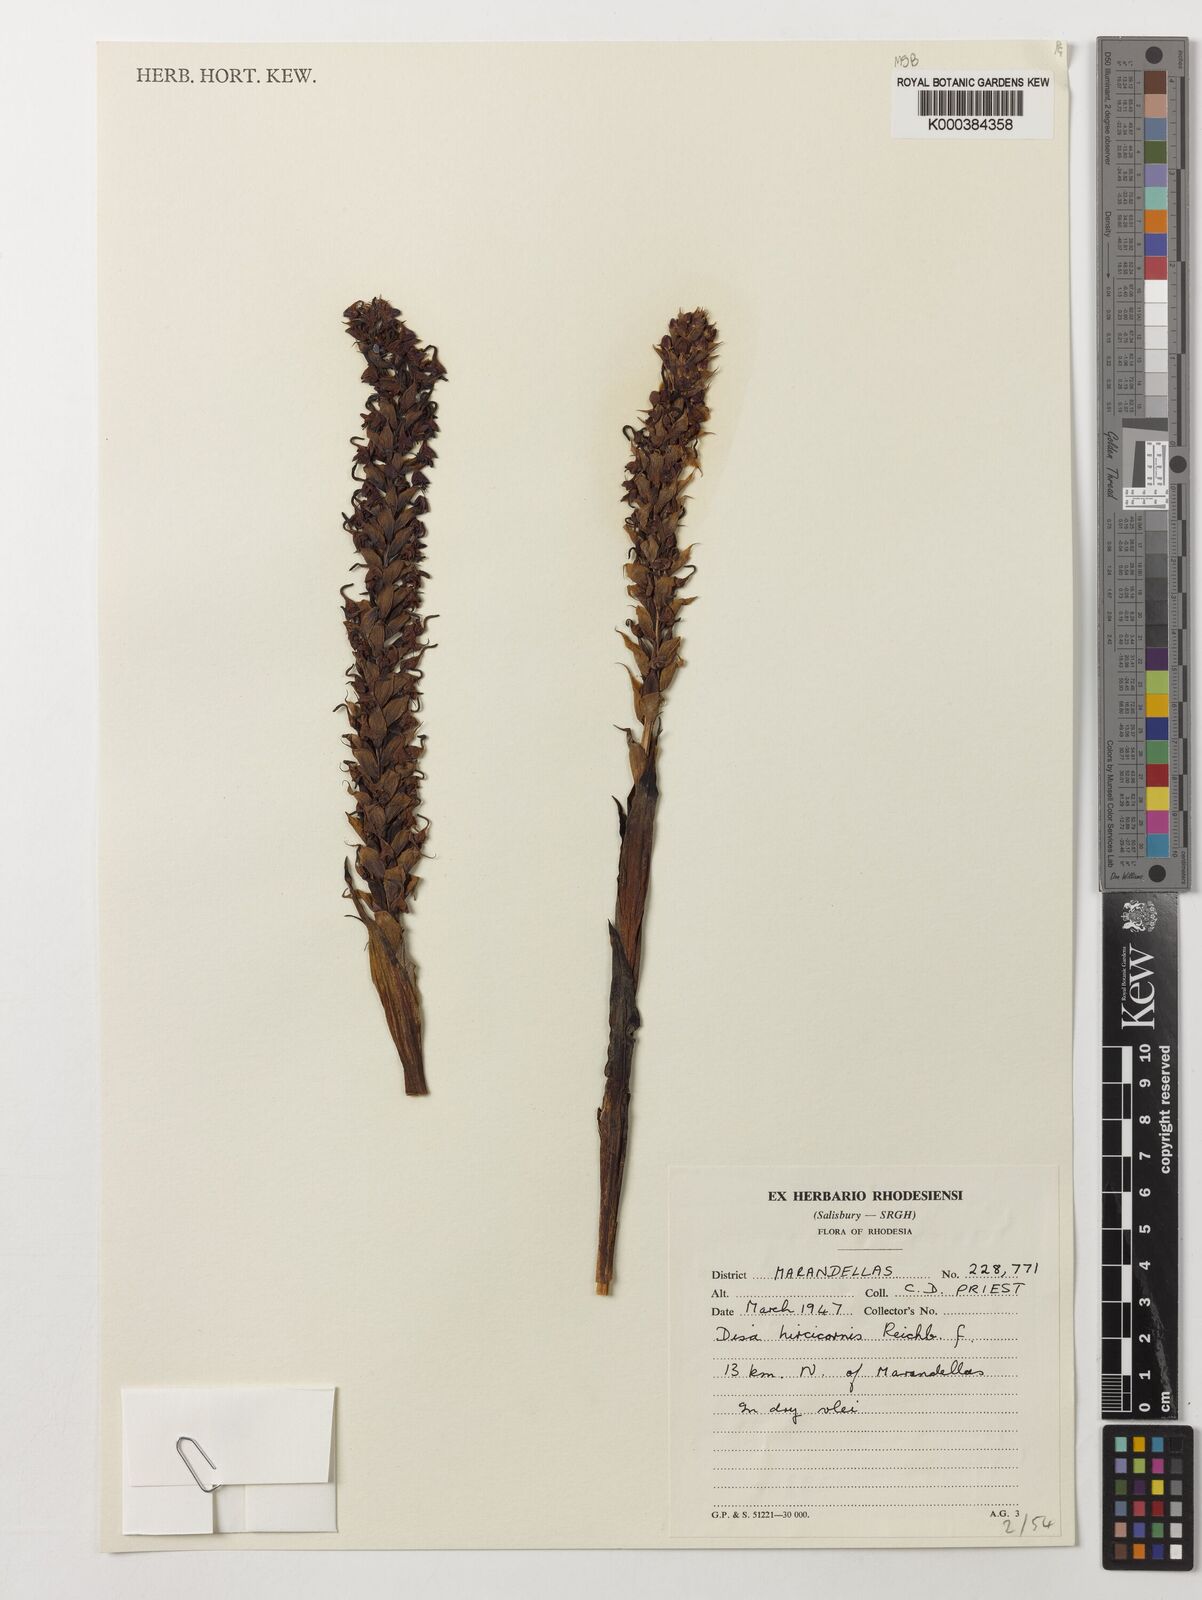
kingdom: Plantae
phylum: Tracheophyta
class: Liliopsida
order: Asparagales
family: Orchidaceae
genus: Disa
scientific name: Disa hircicornis
